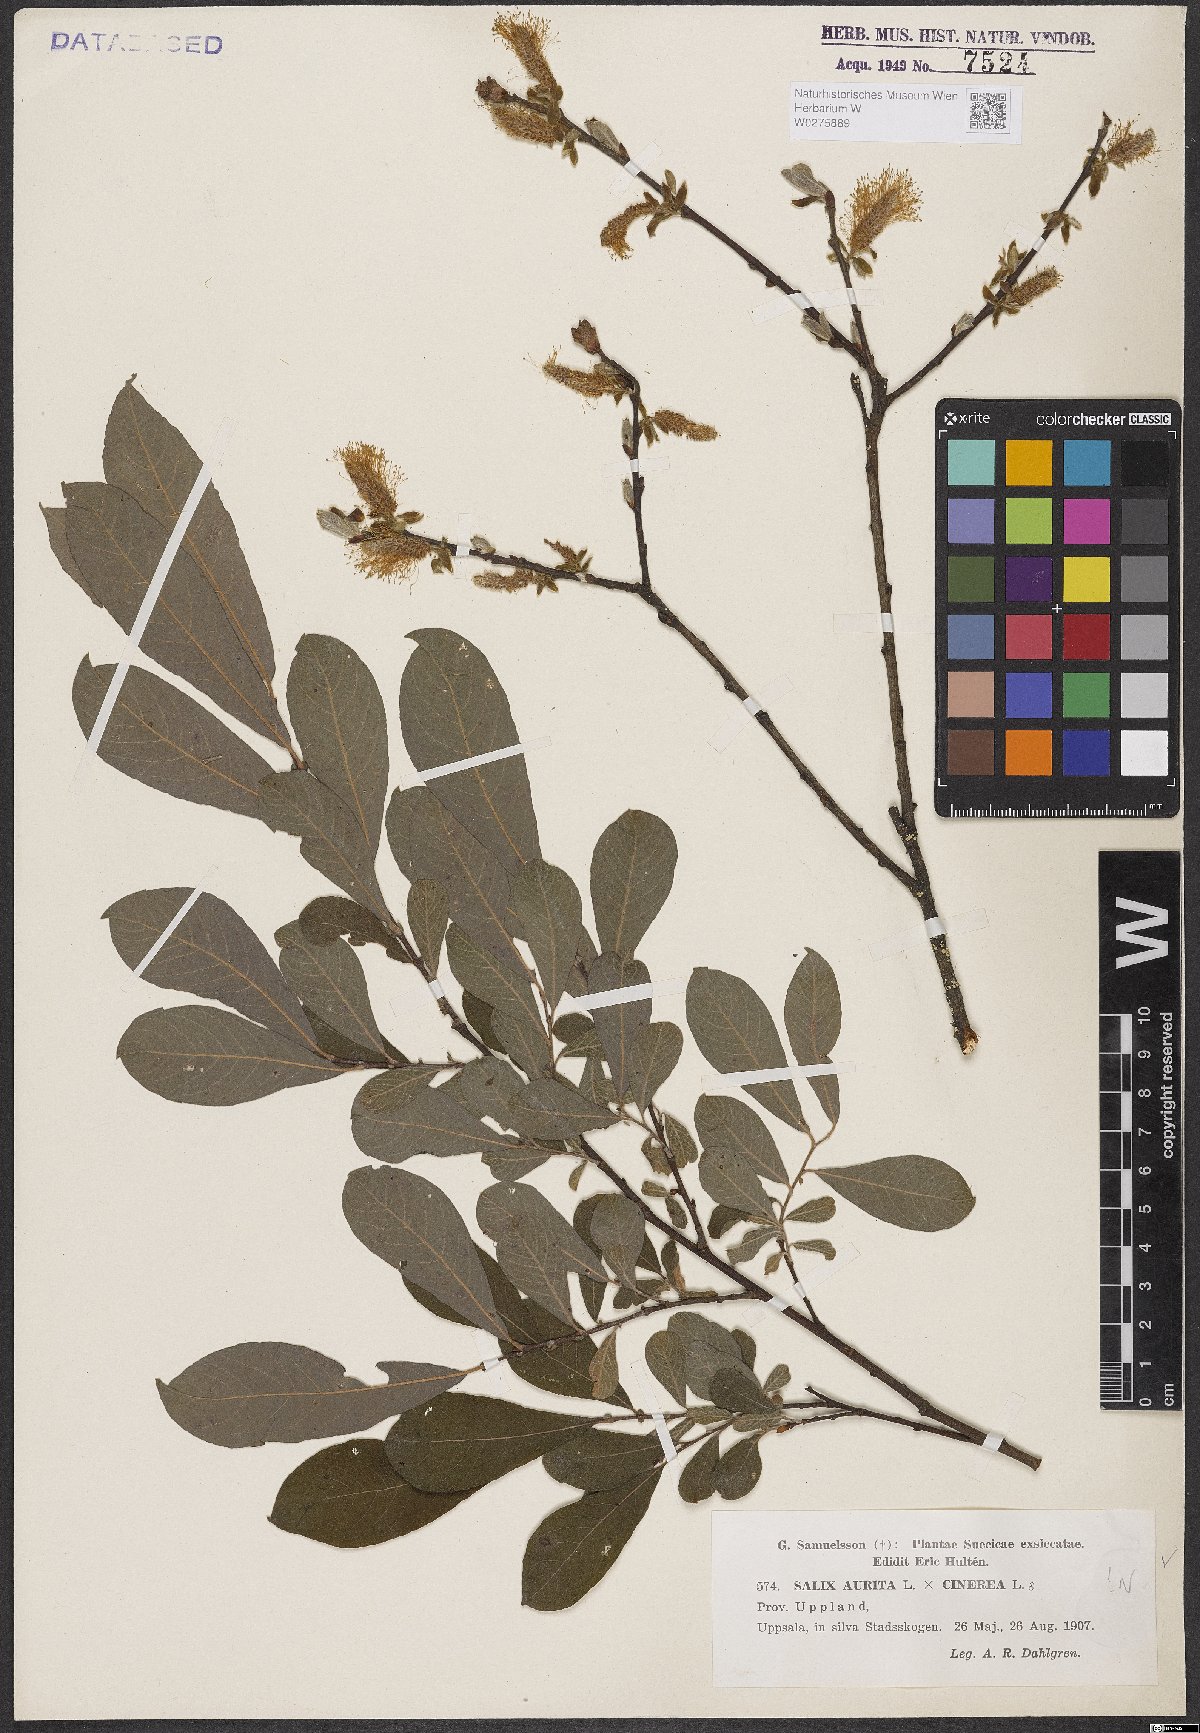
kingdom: Plantae
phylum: Tracheophyta
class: Magnoliopsida
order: Malpighiales
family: Salicaceae
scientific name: Salicaceae
